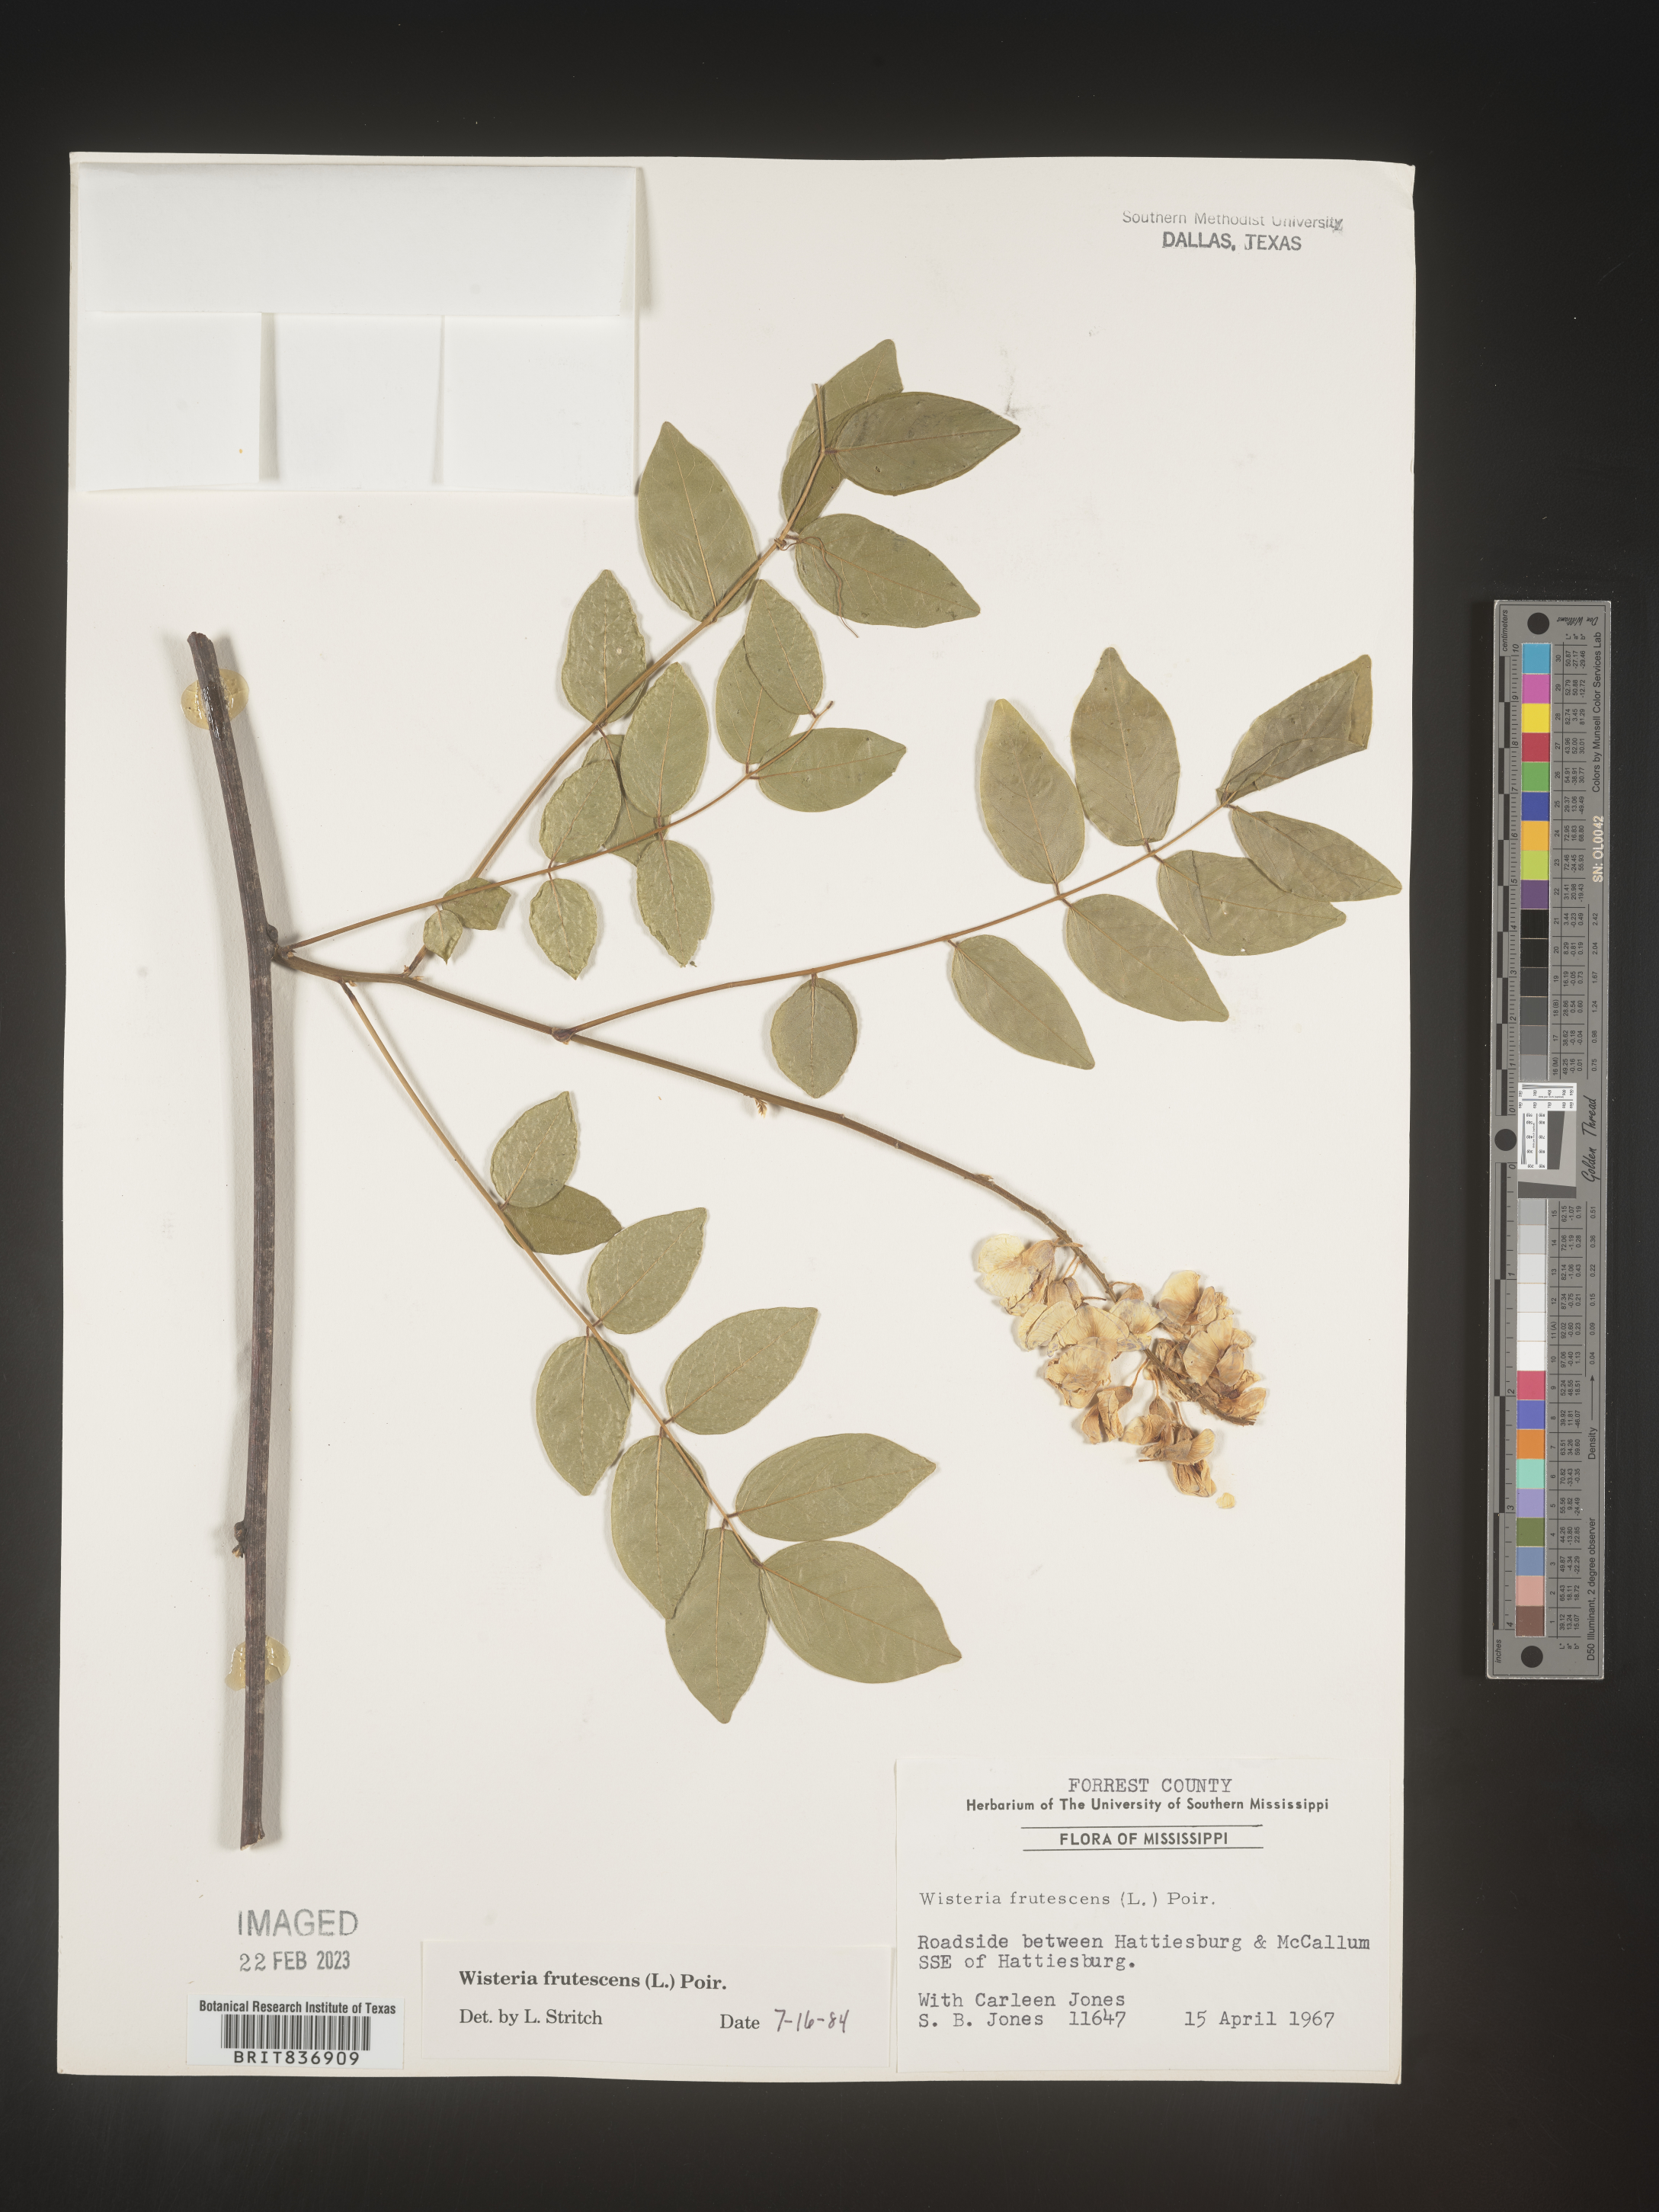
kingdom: Plantae
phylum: Tracheophyta
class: Magnoliopsida
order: Fabales
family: Fabaceae
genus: Wisteria
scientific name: Wisteria
